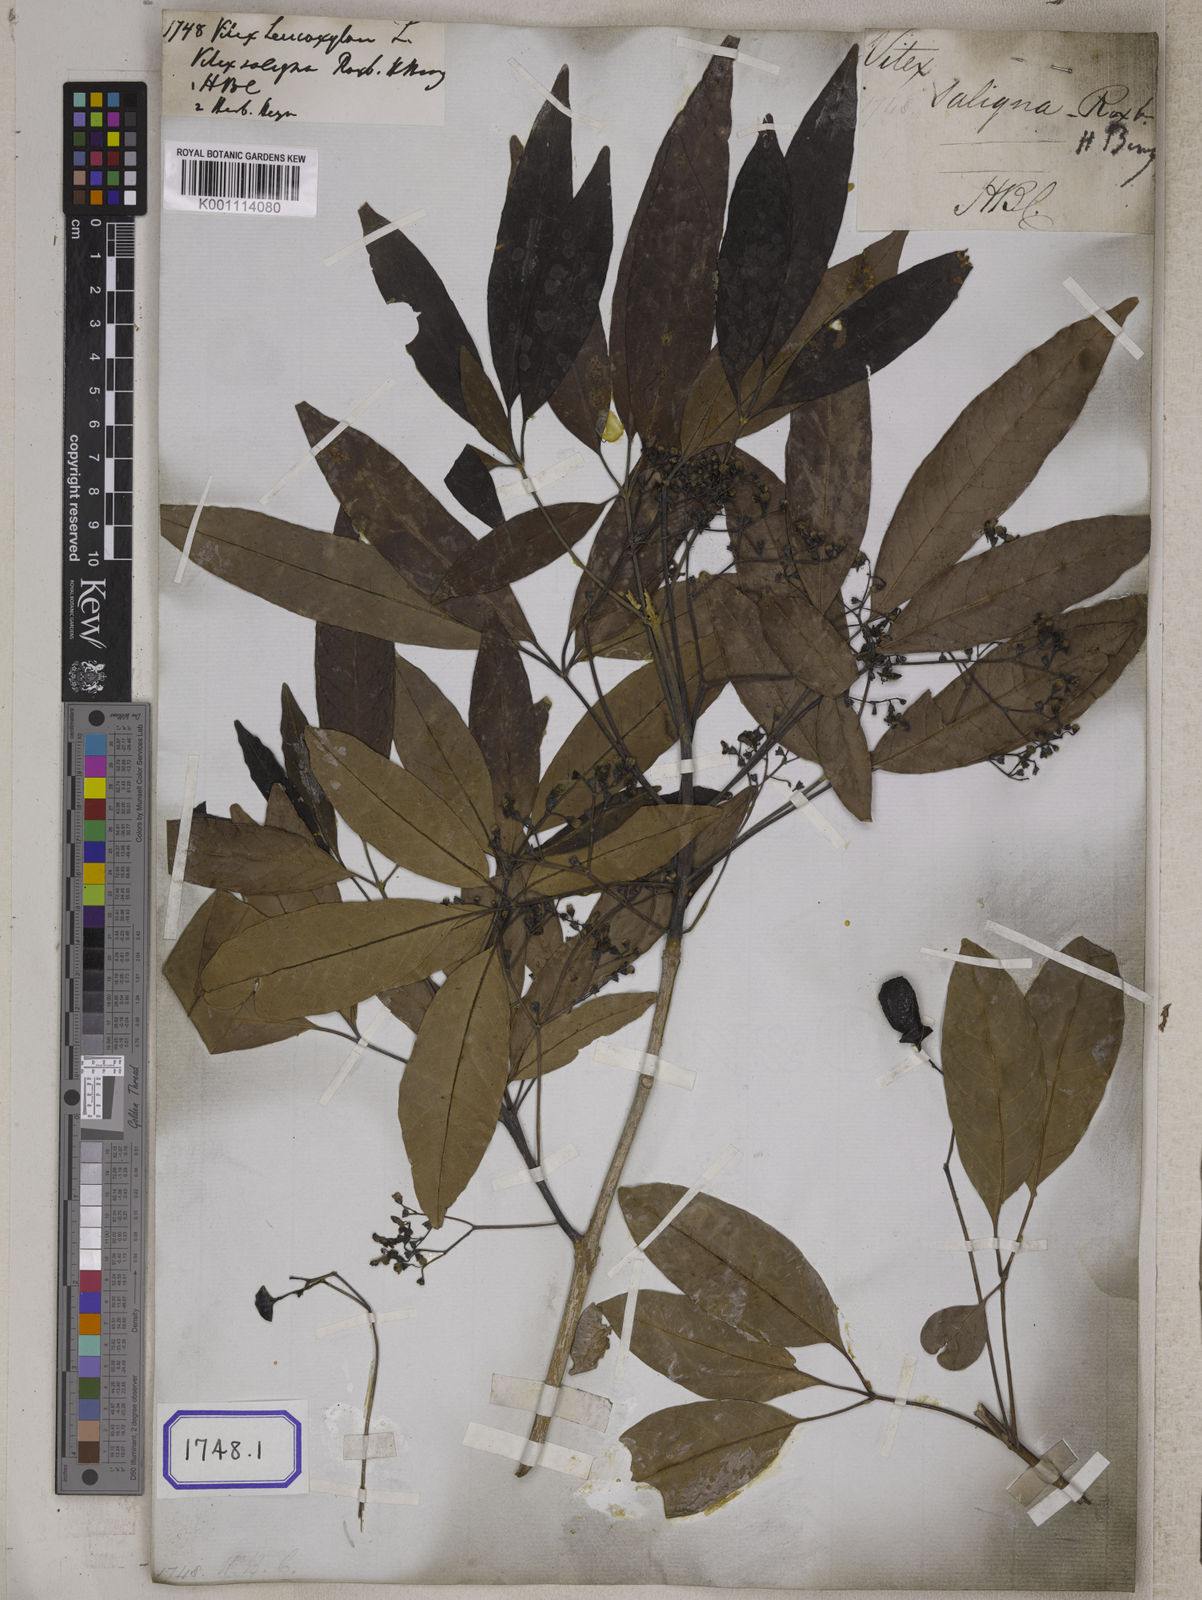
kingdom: Plantae
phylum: Tracheophyta
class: Magnoliopsida
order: Lamiales
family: Lamiaceae
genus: Vitex
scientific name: Vitex leucoxylon
